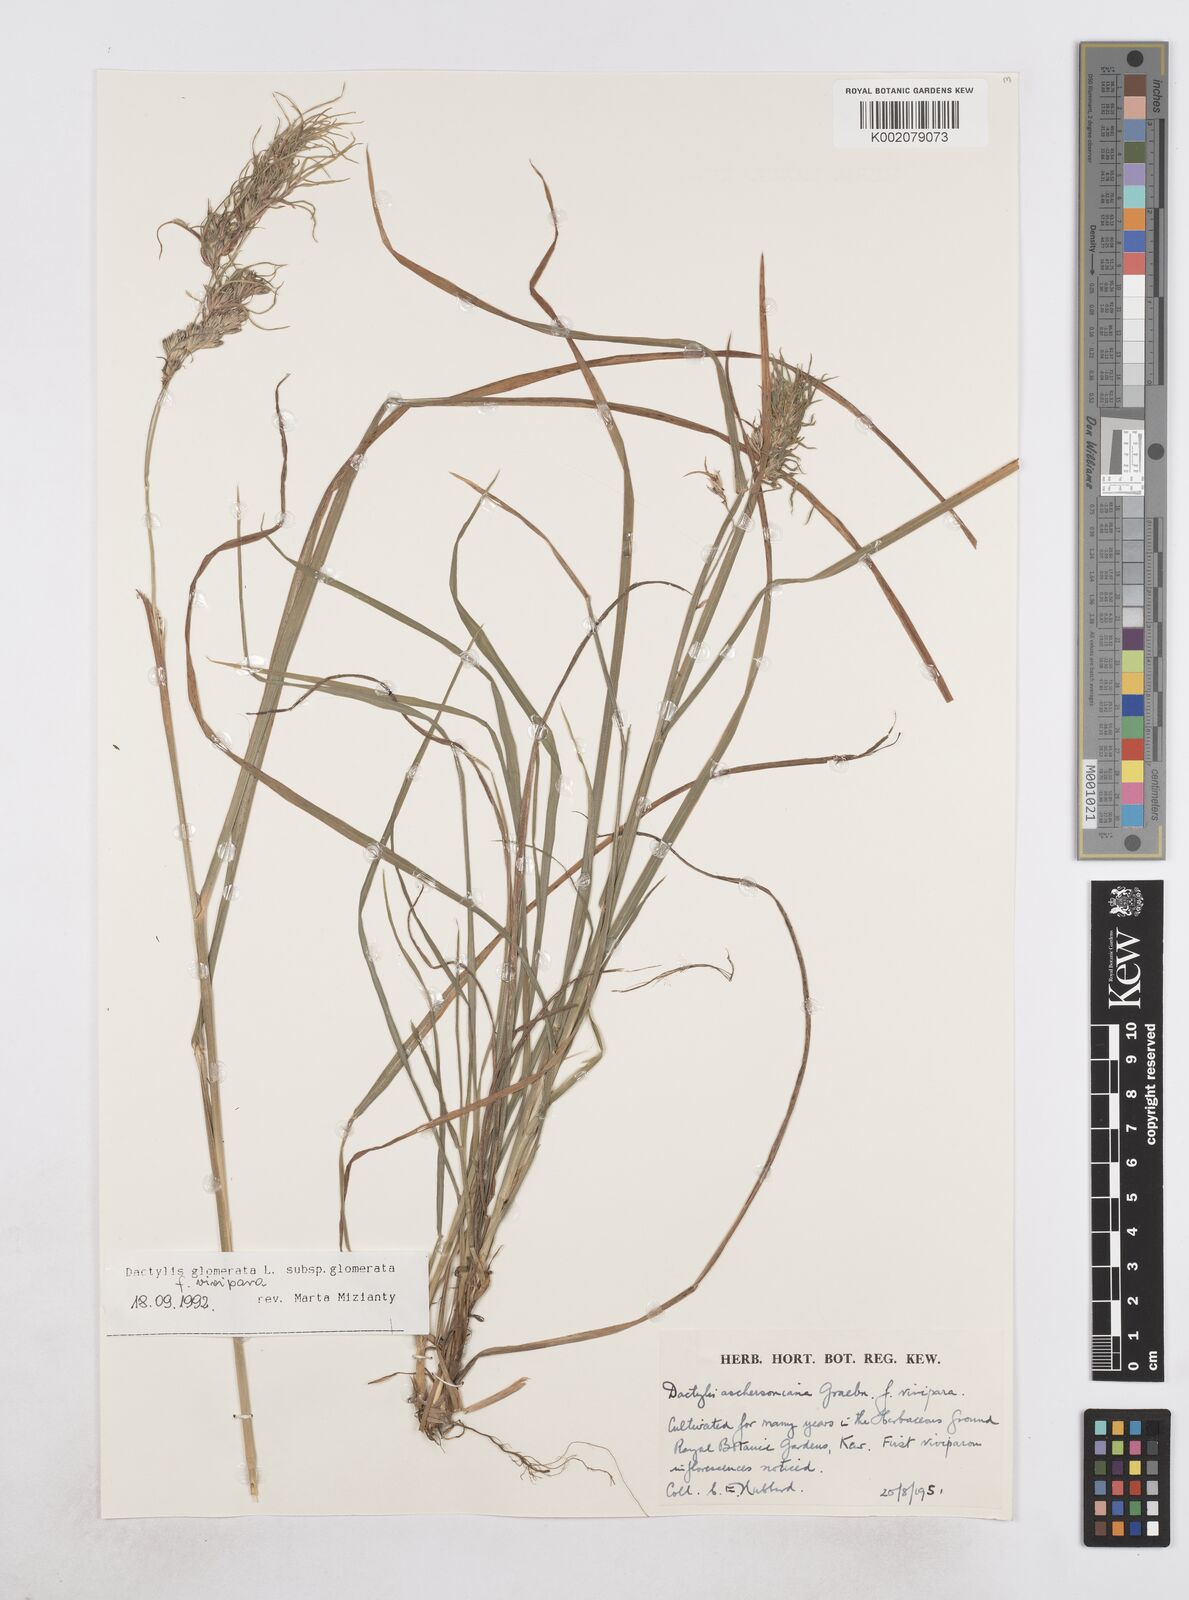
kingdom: Plantae
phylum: Tracheophyta
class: Liliopsida
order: Poales
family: Poaceae
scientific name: Poaceae
